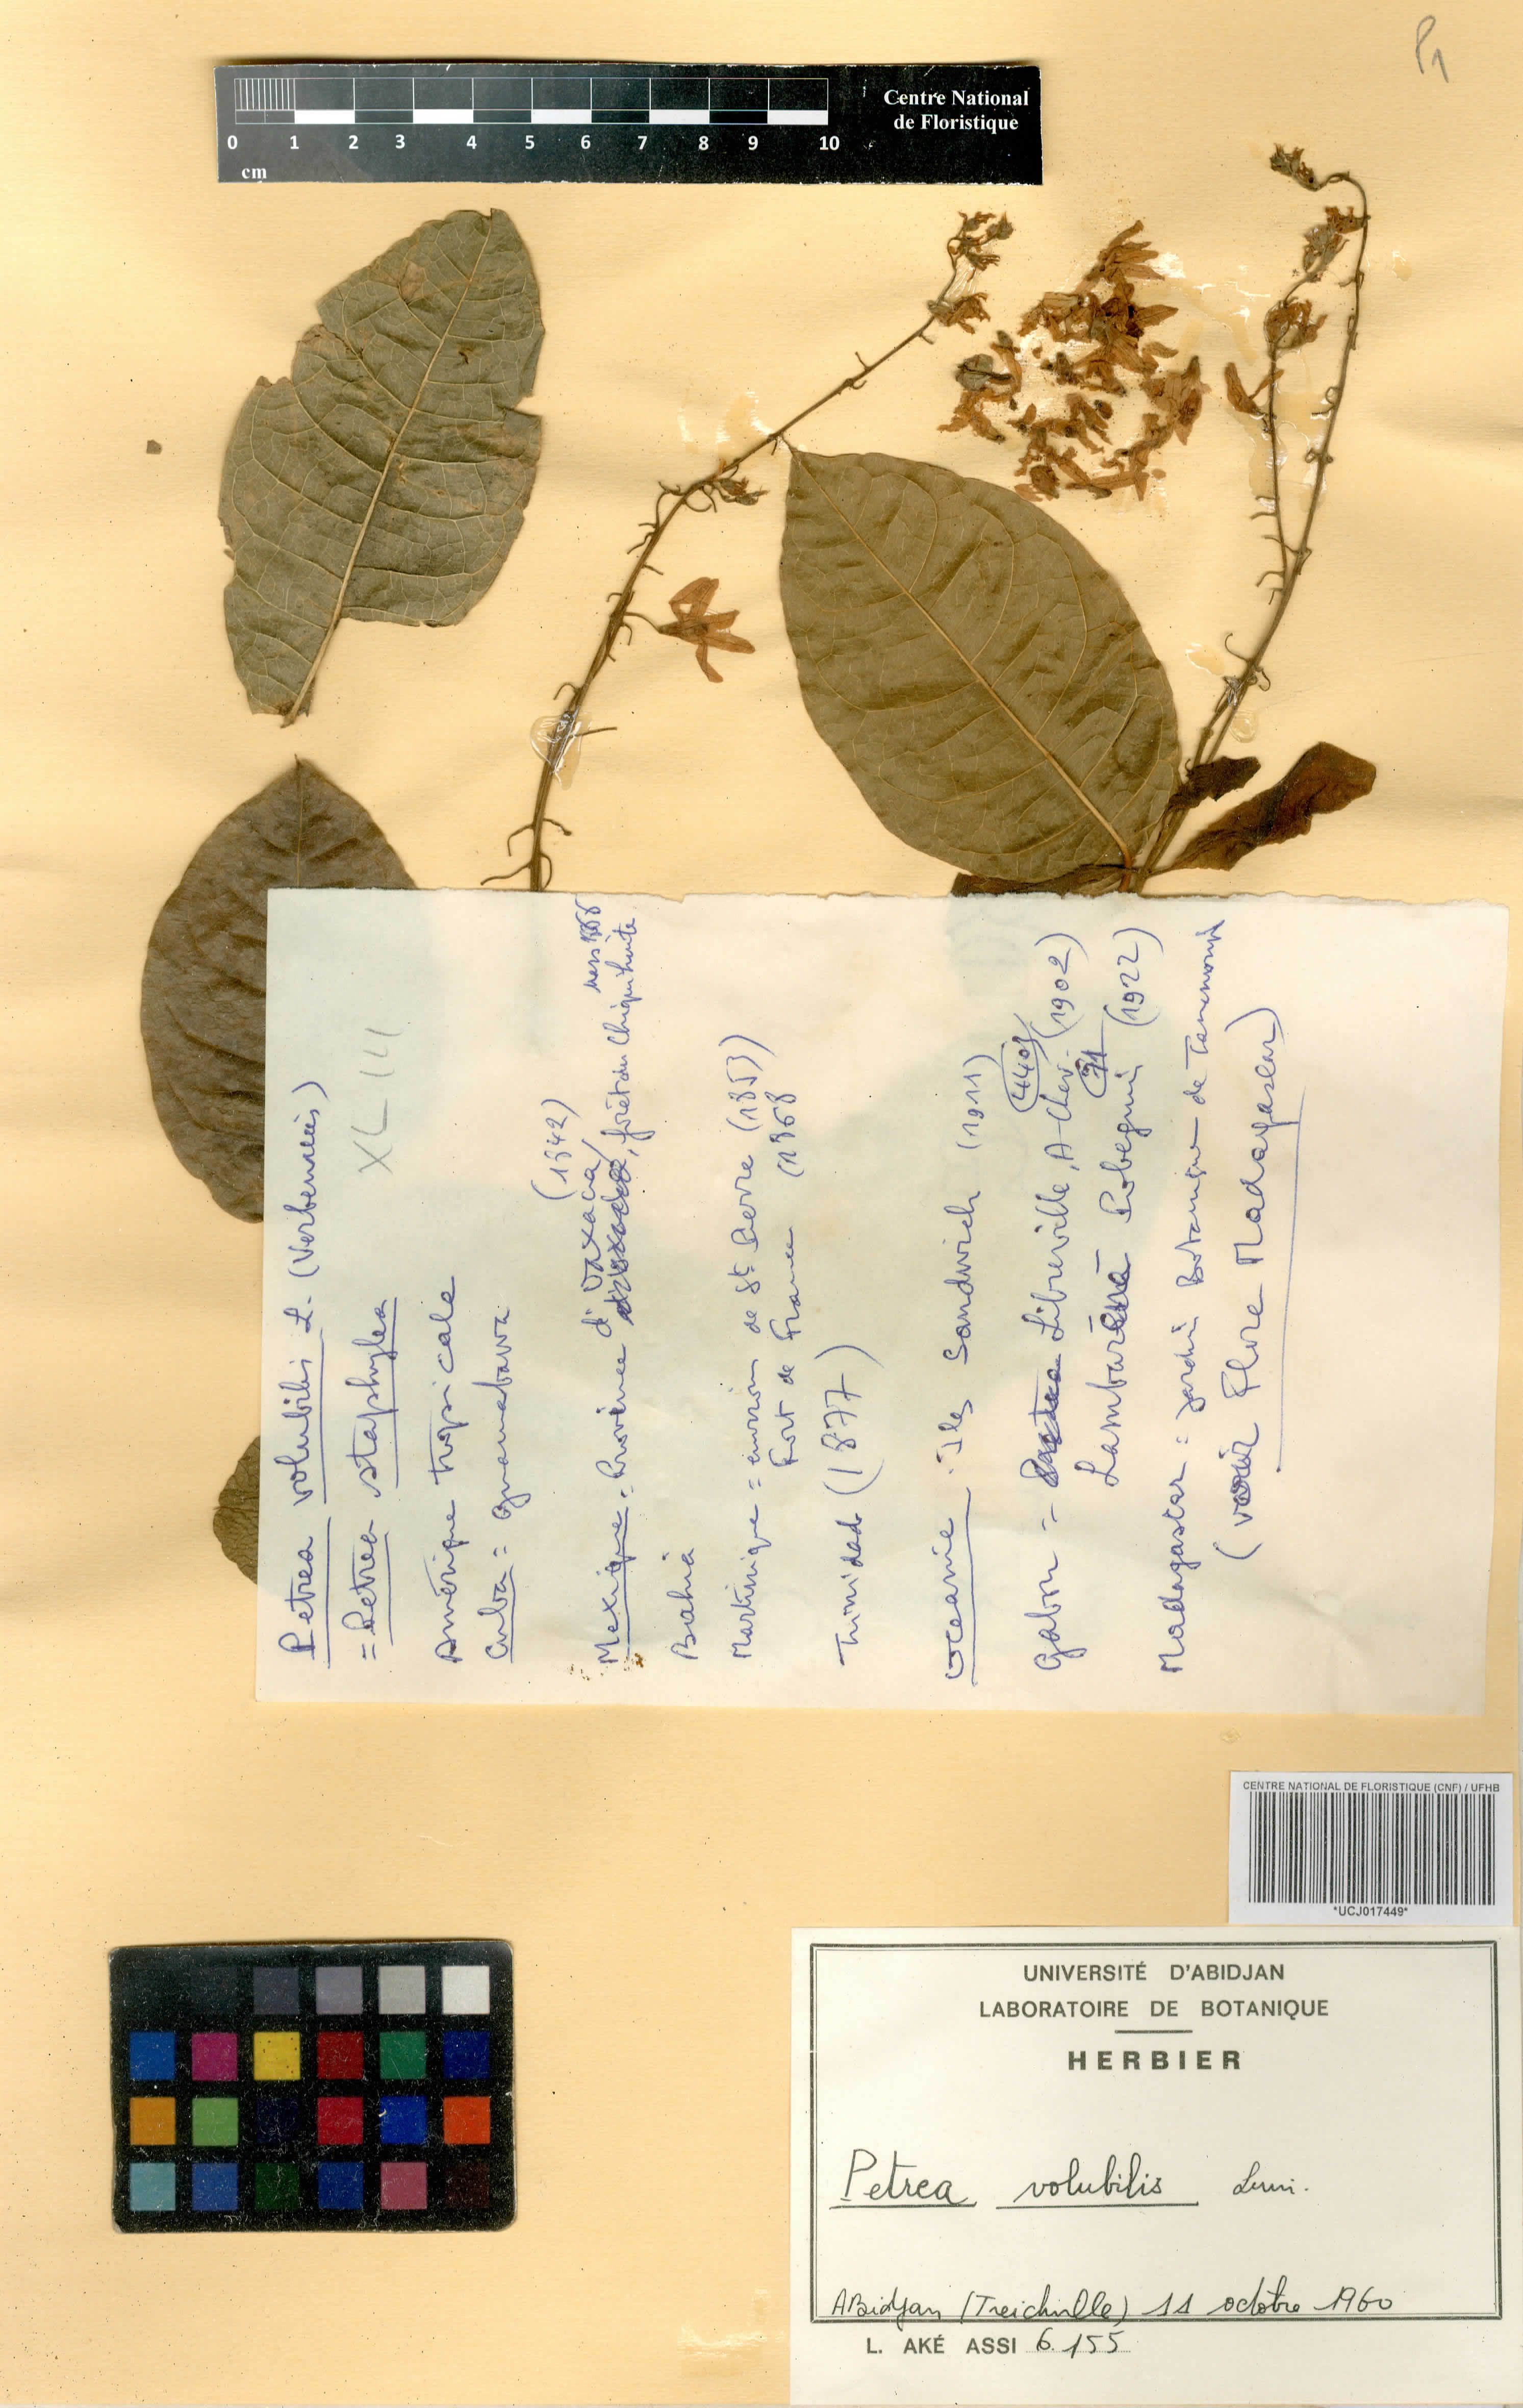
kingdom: Plantae
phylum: Tracheophyta
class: Magnoliopsida
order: Lamiales
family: Verbenaceae
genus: Petrea
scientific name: Petrea volubilis
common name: Queen's-wreath
